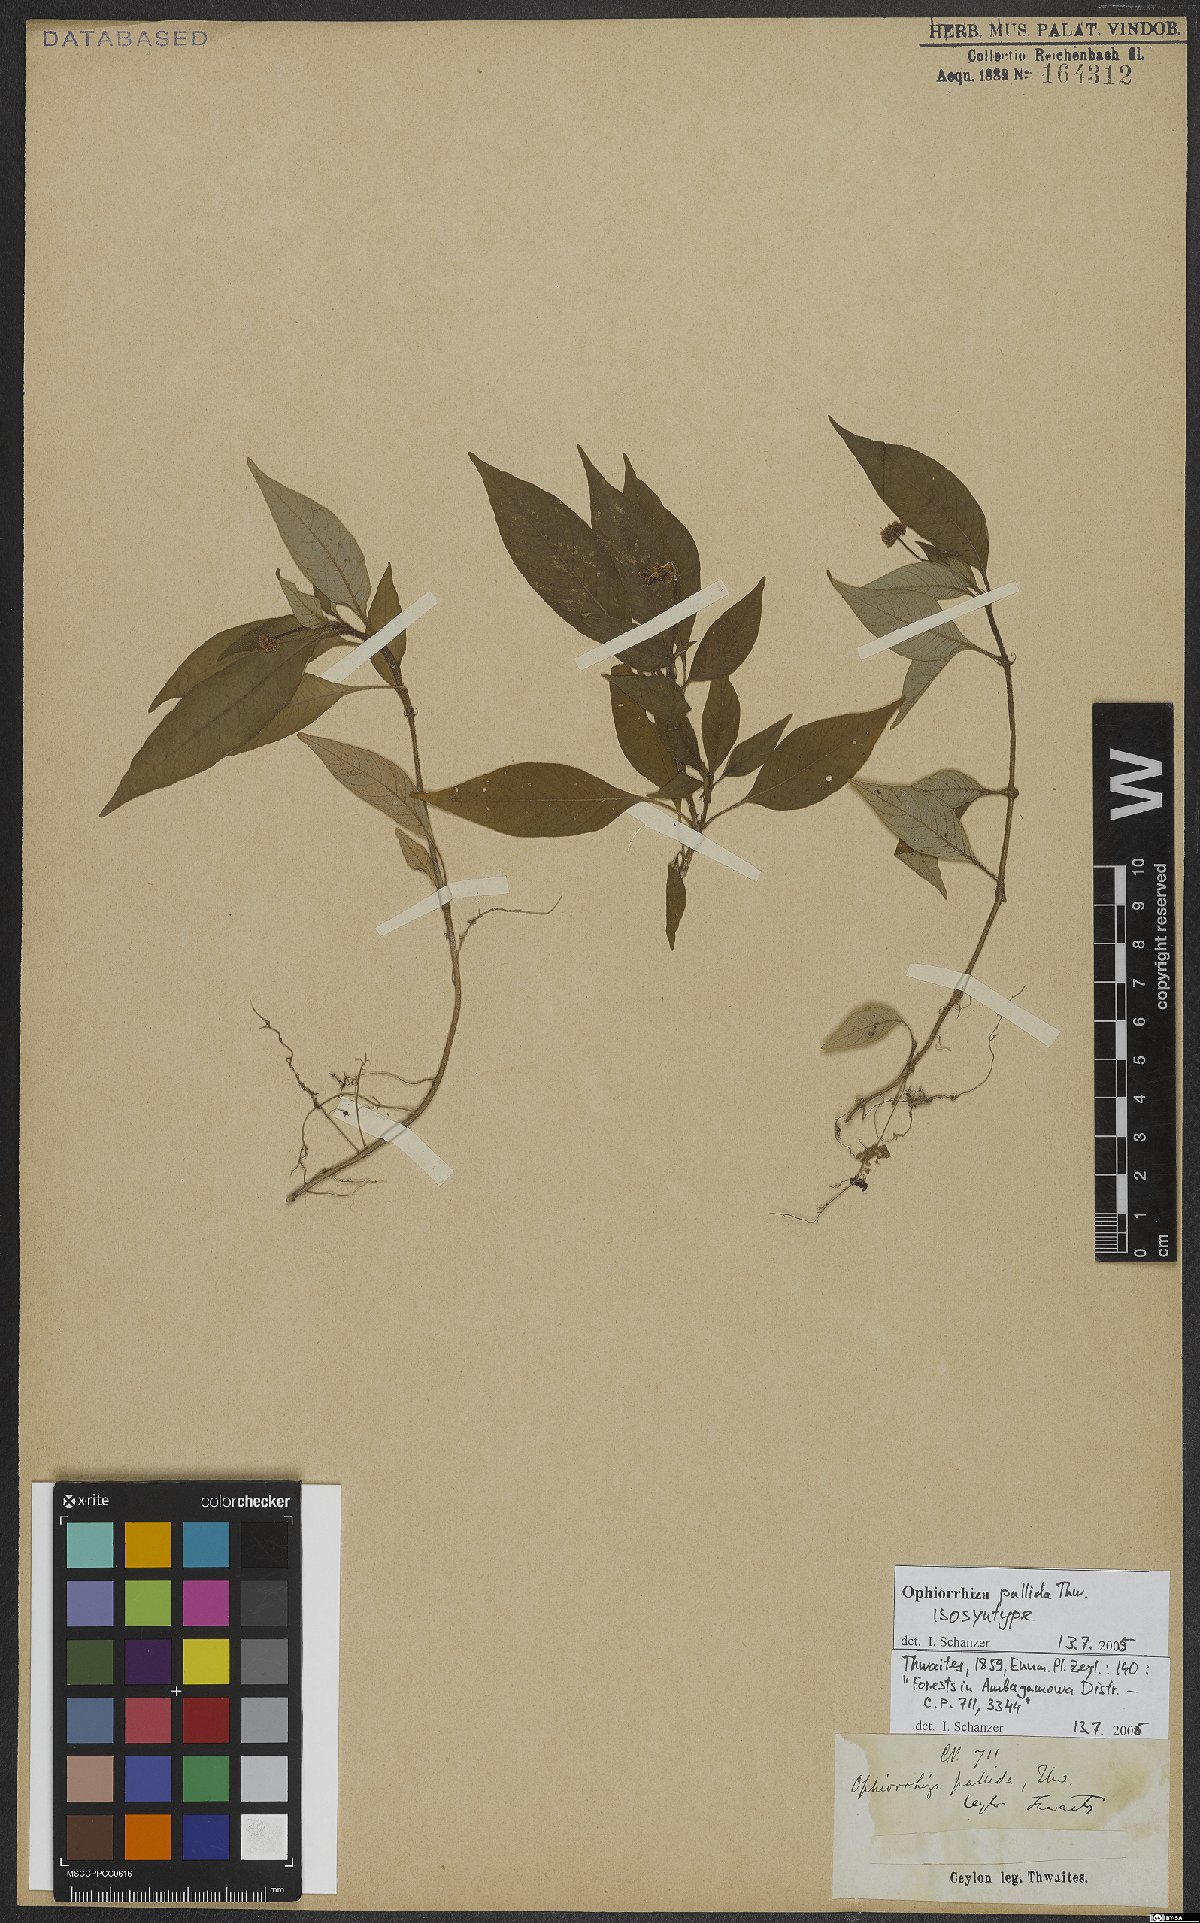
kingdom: Plantae
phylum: Tracheophyta
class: Magnoliopsida
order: Gentianales
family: Rubiaceae
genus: Ophiorrhiza
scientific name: Ophiorrhiza pallida
